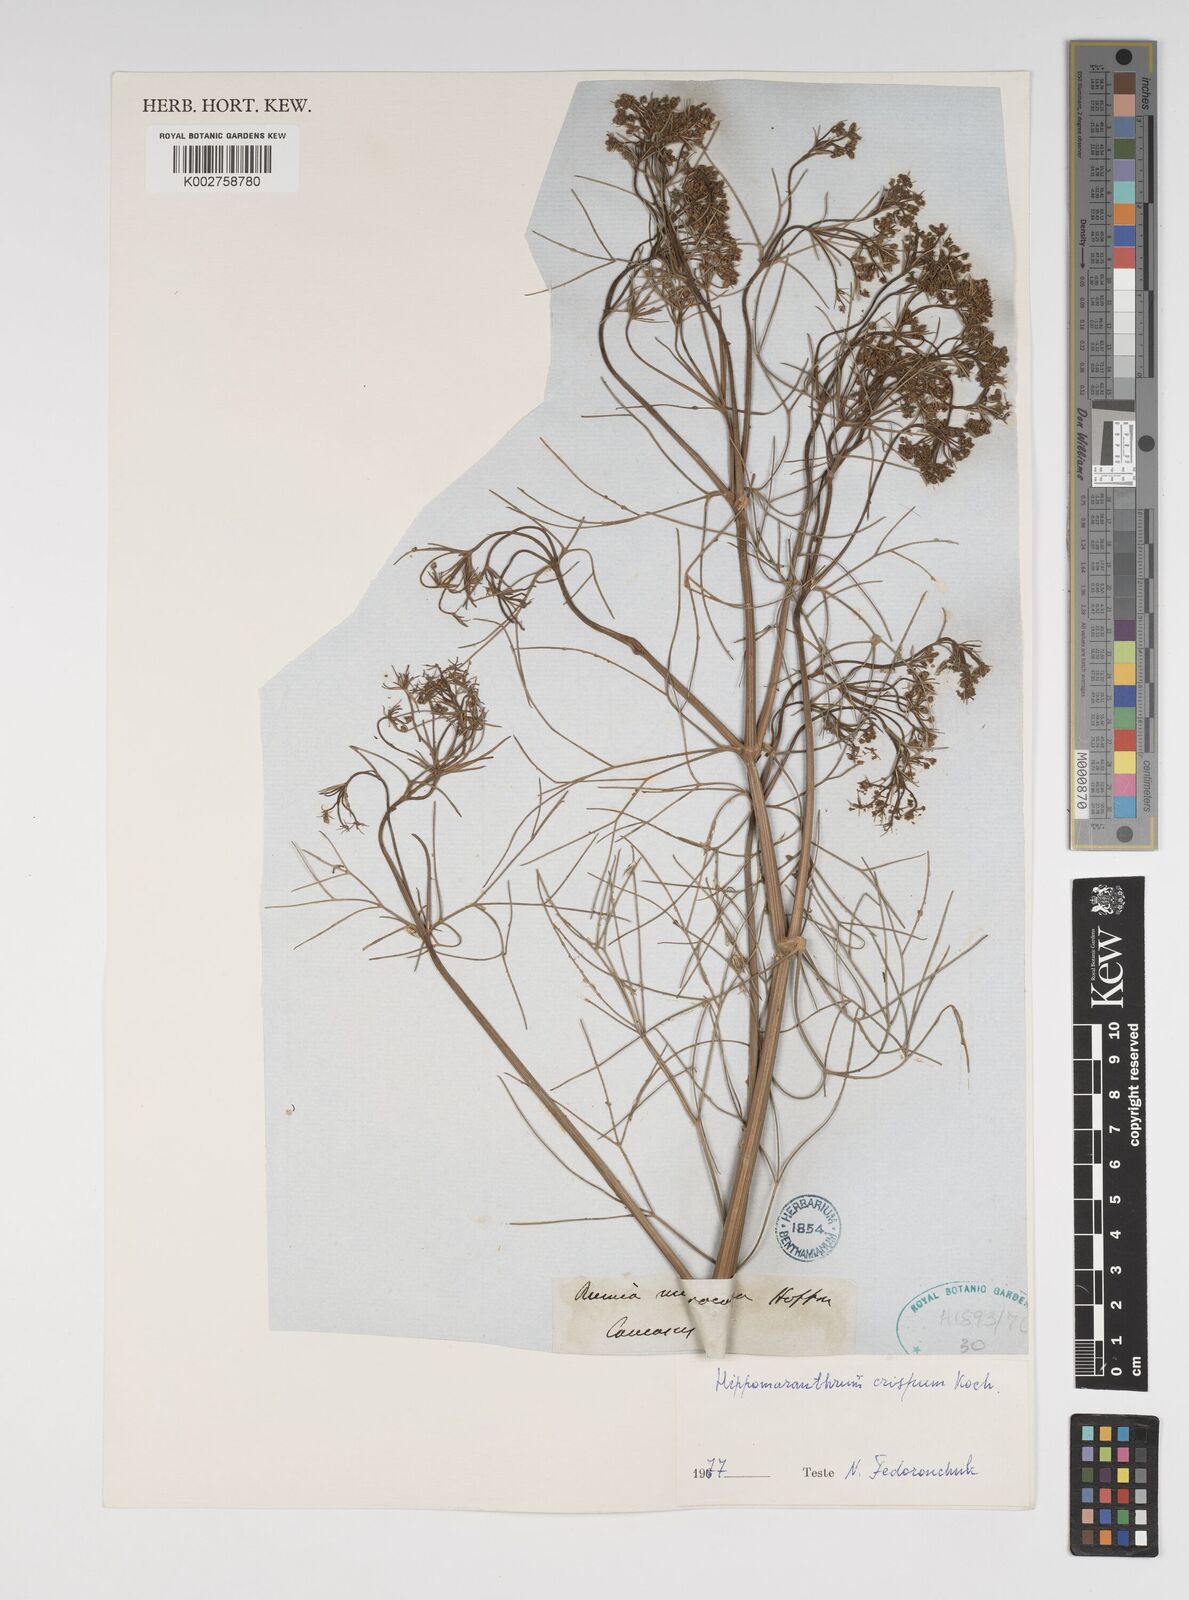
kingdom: Plantae
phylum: Tracheophyta
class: Magnoliopsida
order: Apiales
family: Apiaceae
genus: Bilacunaria
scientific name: Bilacunaria microcarpa
